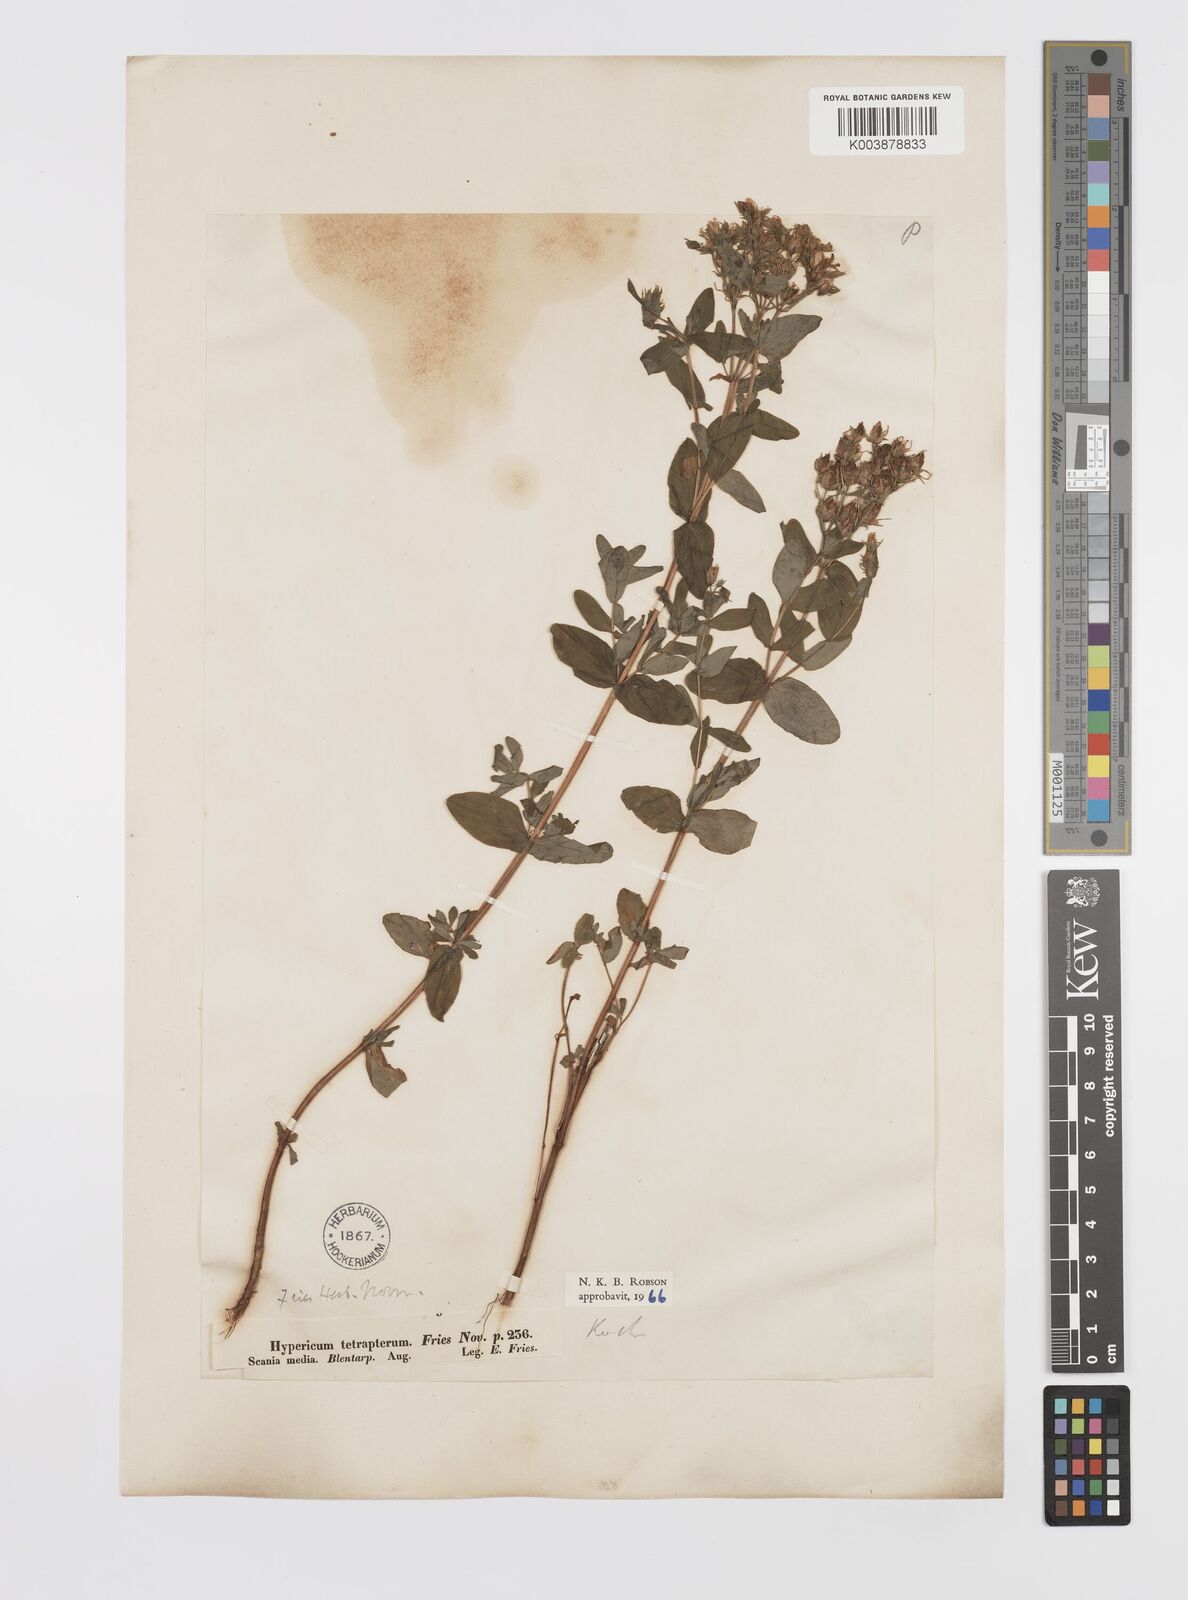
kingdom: Plantae
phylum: Tracheophyta
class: Magnoliopsida
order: Malpighiales
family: Hypericaceae
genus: Hypericum
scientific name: Hypericum tetrapterum
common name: Square-stalked st. john's-wort
